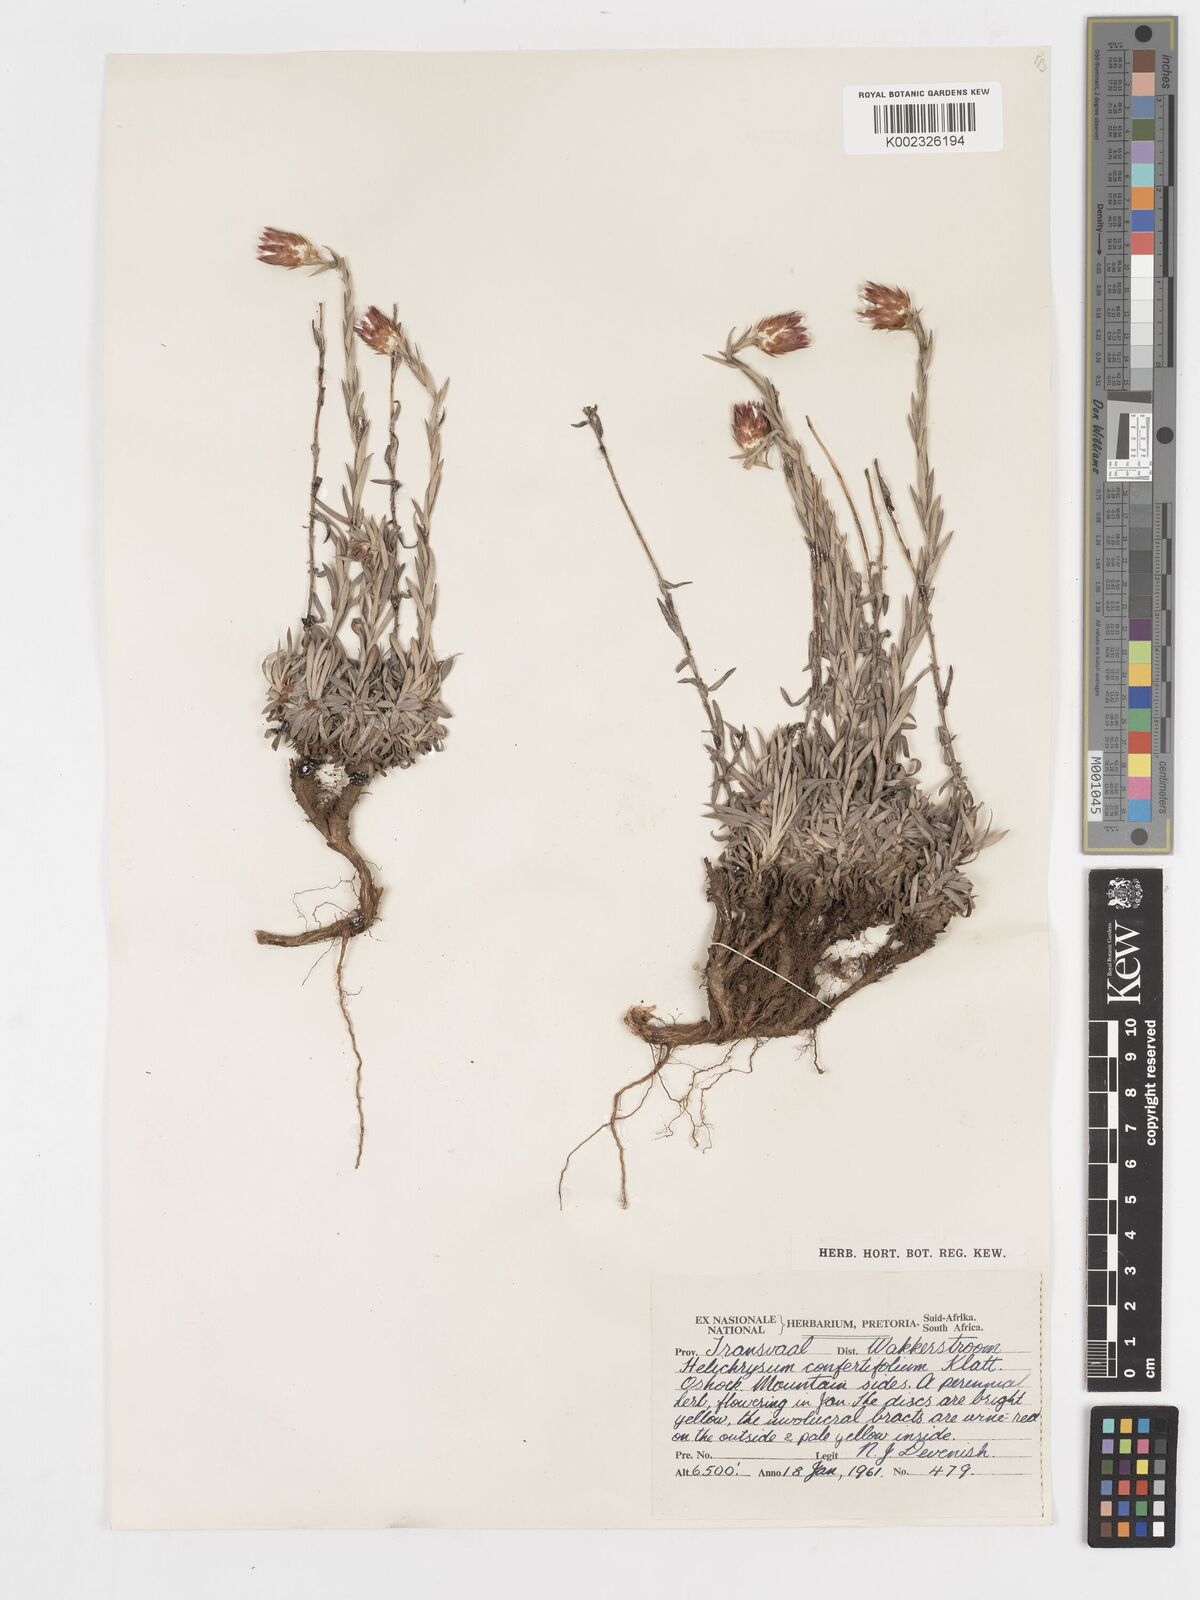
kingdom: Plantae
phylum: Tracheophyta
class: Magnoliopsida
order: Asterales
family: Asteraceae
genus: Helichrysum
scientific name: Helichrysum confertifolium
